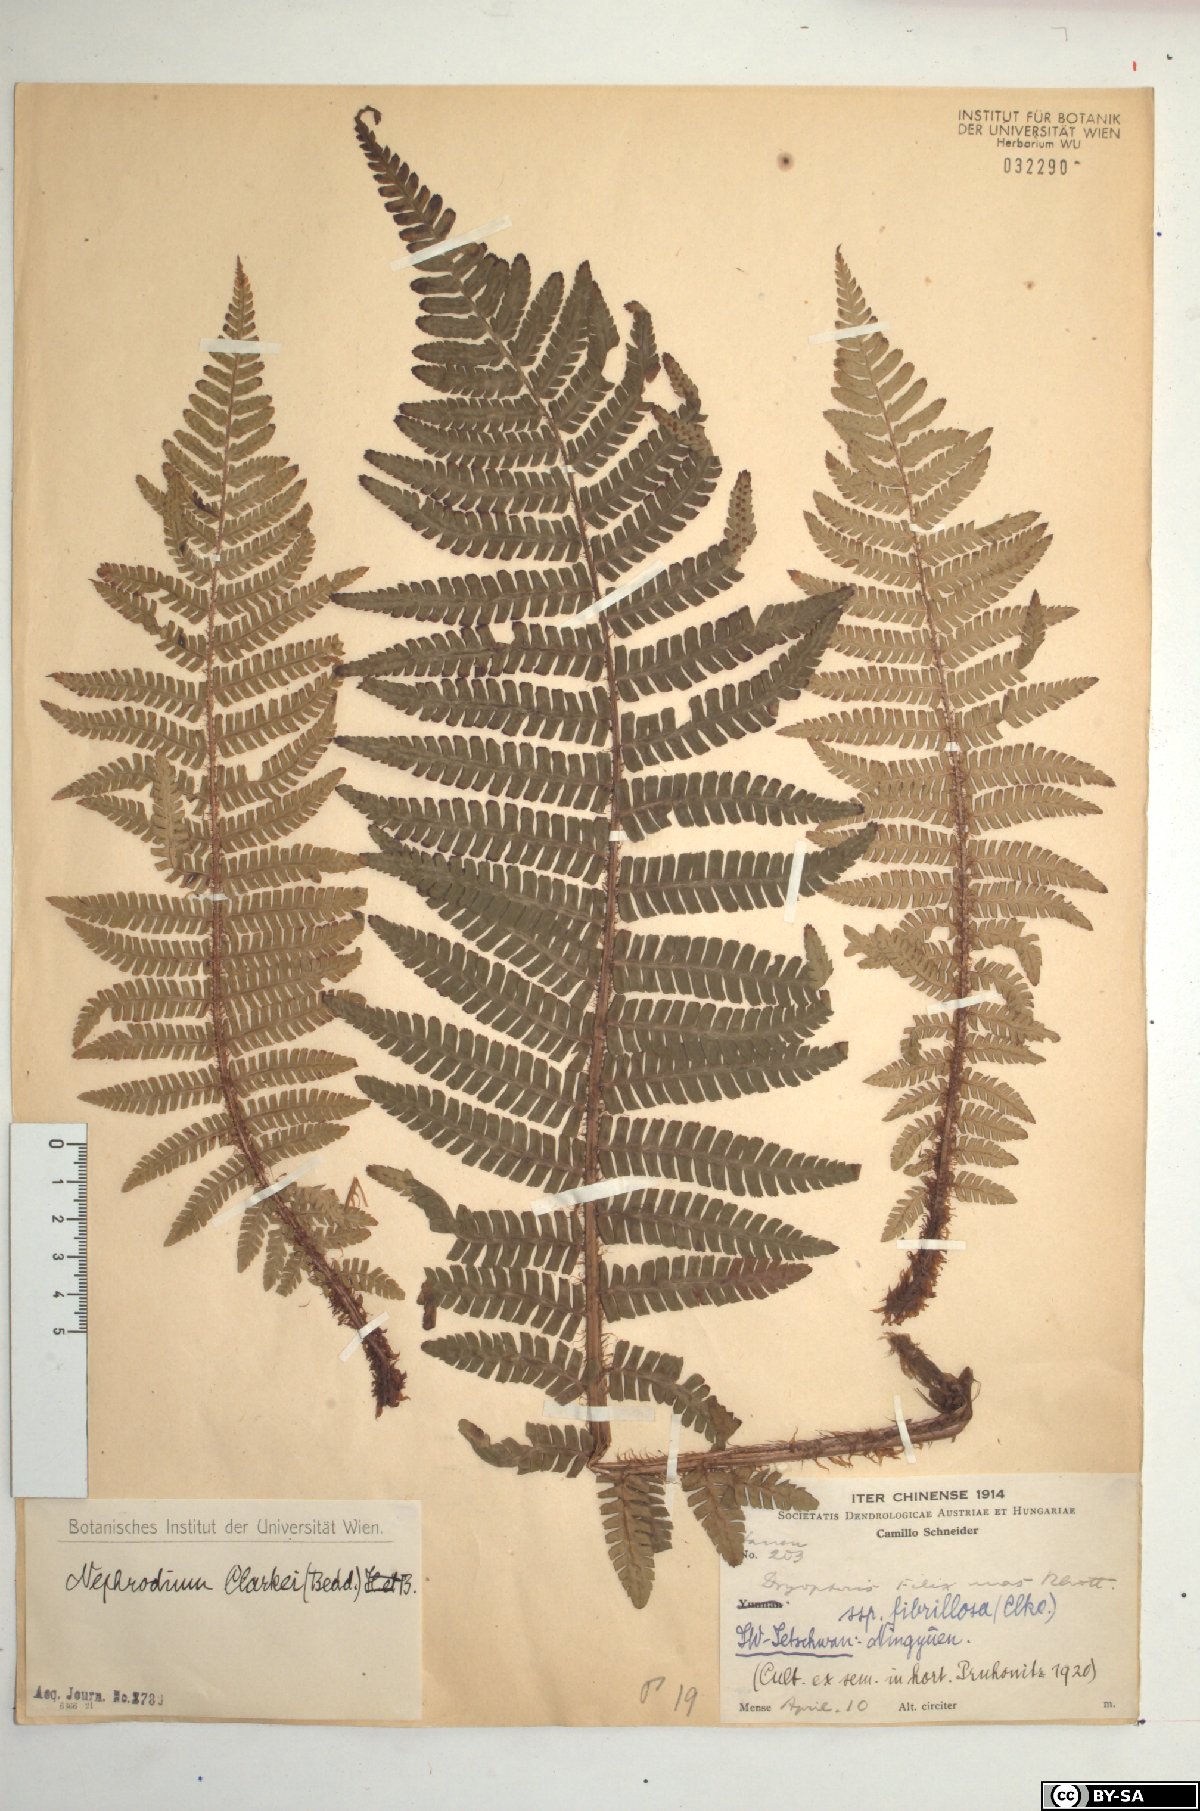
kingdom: Plantae
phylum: Tracheophyta
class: Polypodiopsida
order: Polypodiales
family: Dryopteridaceae
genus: Dryopteris
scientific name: Dryopteris xanthomelas
